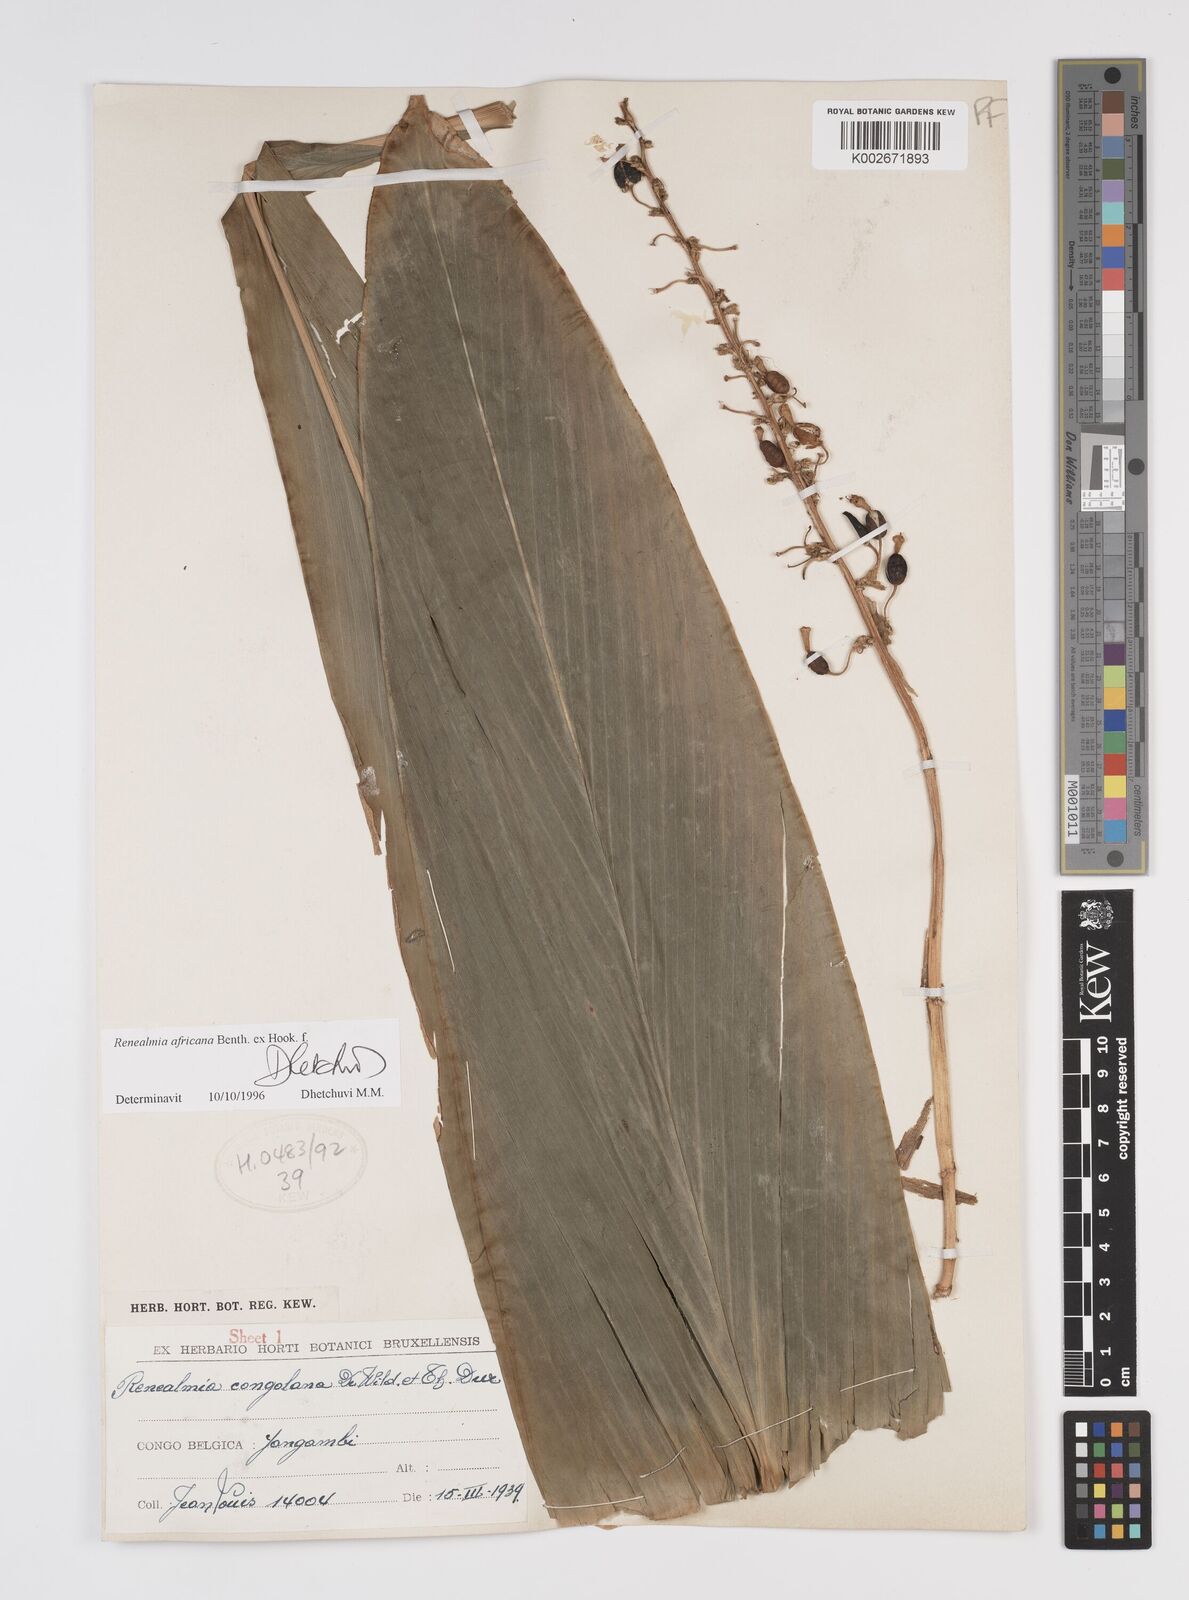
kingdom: Plantae
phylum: Tracheophyta
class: Liliopsida
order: Zingiberales
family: Zingiberaceae
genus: Renealmia
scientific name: Renealmia africana
